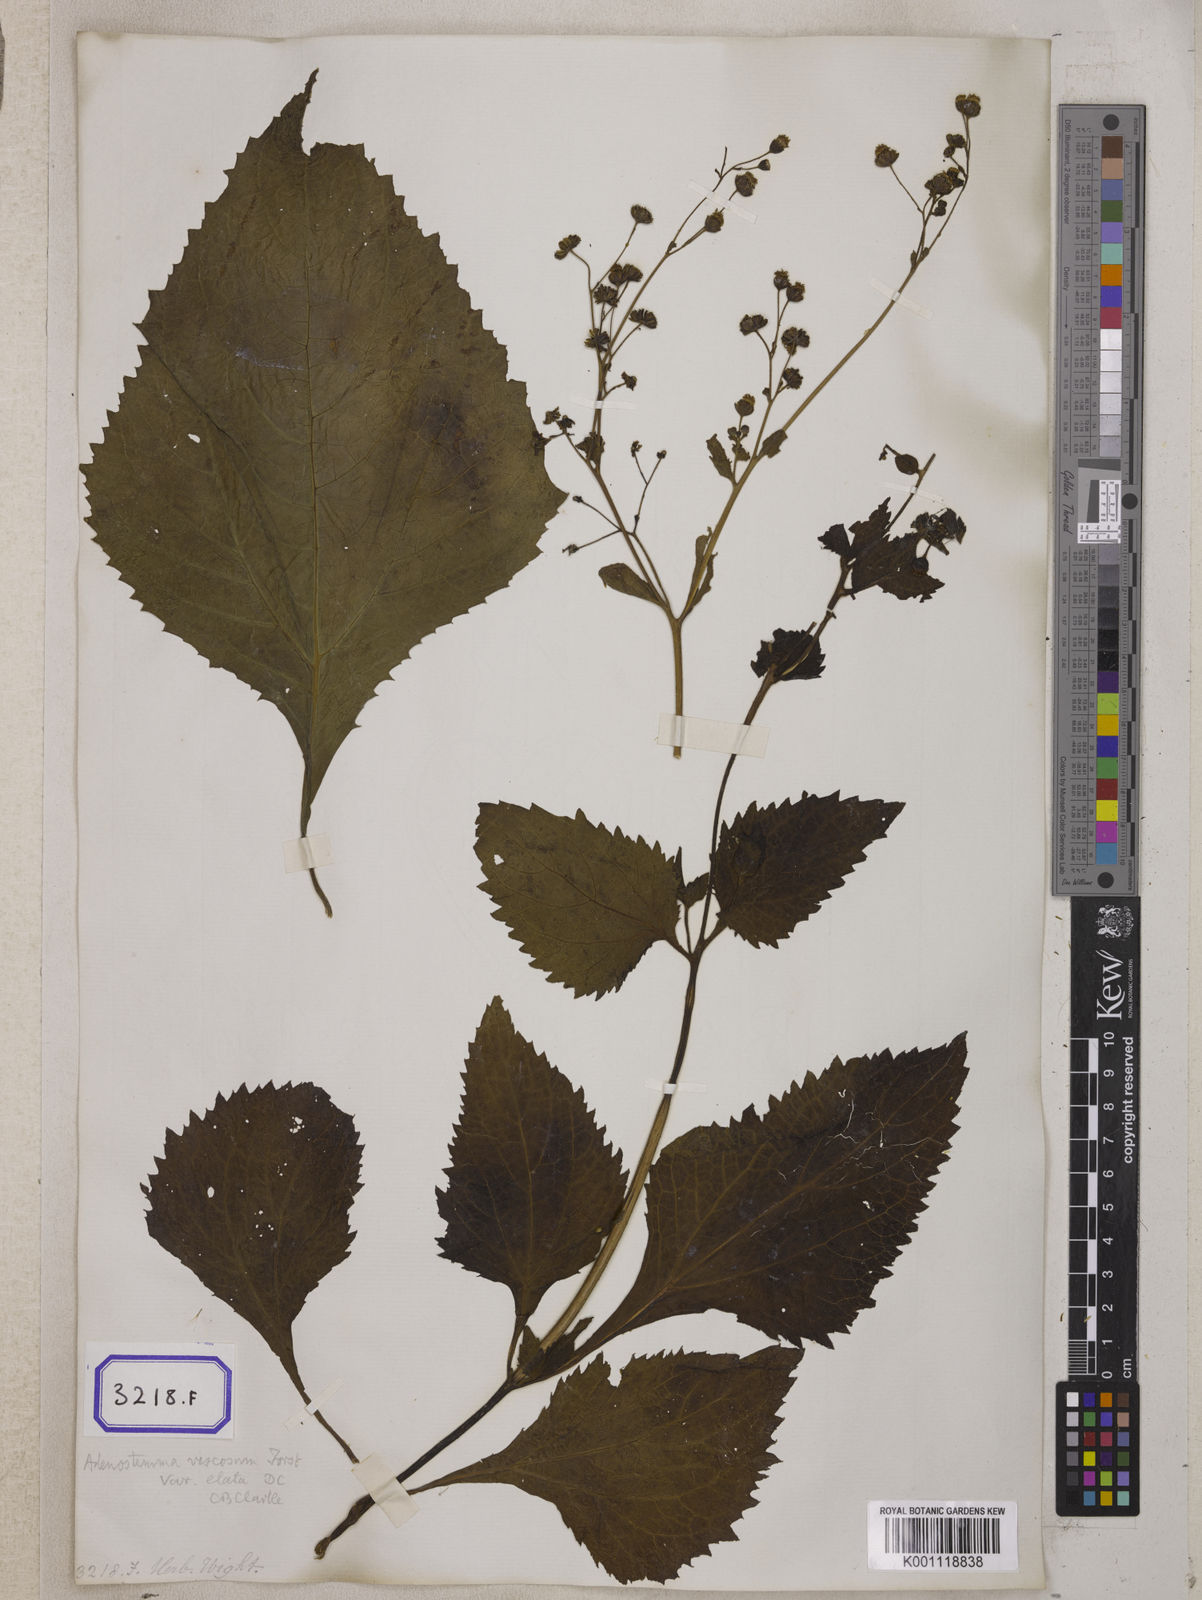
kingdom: Plantae
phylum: Tracheophyta
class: Magnoliopsida
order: Asterales
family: Asteraceae
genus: Adenostemma
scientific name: Adenostemma viscosum
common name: Dungweed
